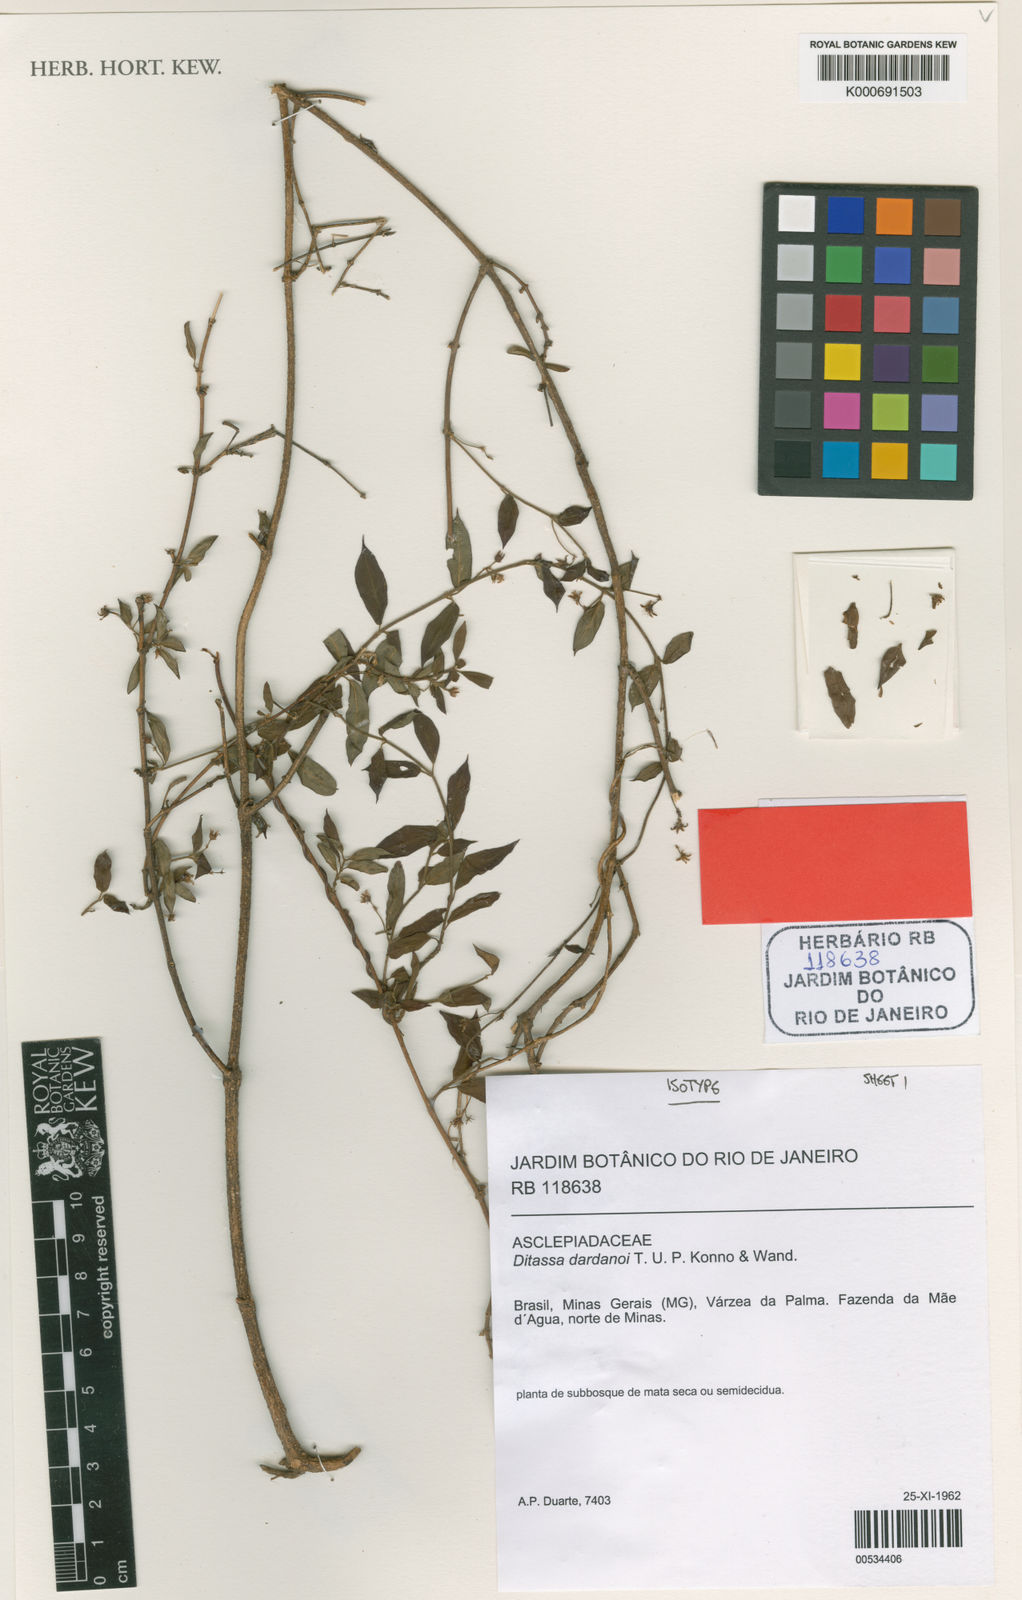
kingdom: Plantae
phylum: Tracheophyta
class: Magnoliopsida
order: Gentianales
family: Apocynaceae
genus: Ditassa
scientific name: Ditassa dardanoi
